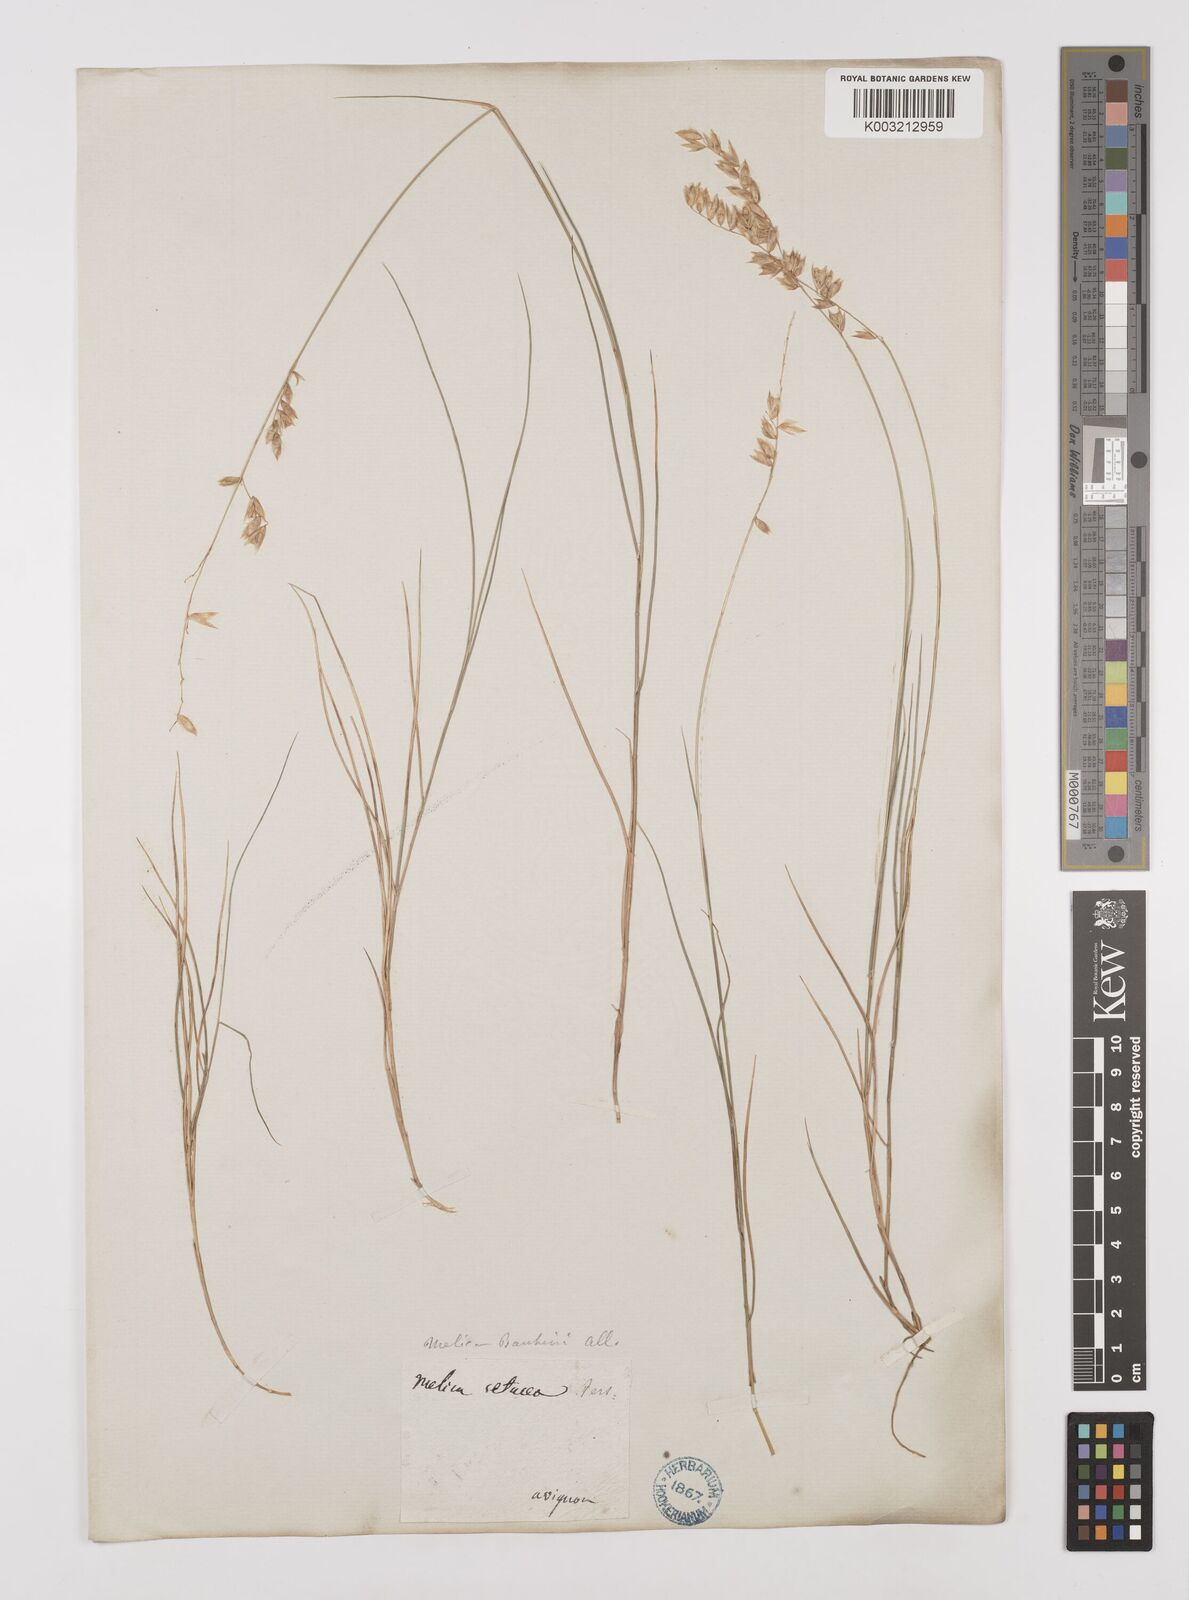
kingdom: Plantae
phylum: Tracheophyta
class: Liliopsida
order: Poales
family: Poaceae
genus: Melica
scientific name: Melica amethystina
